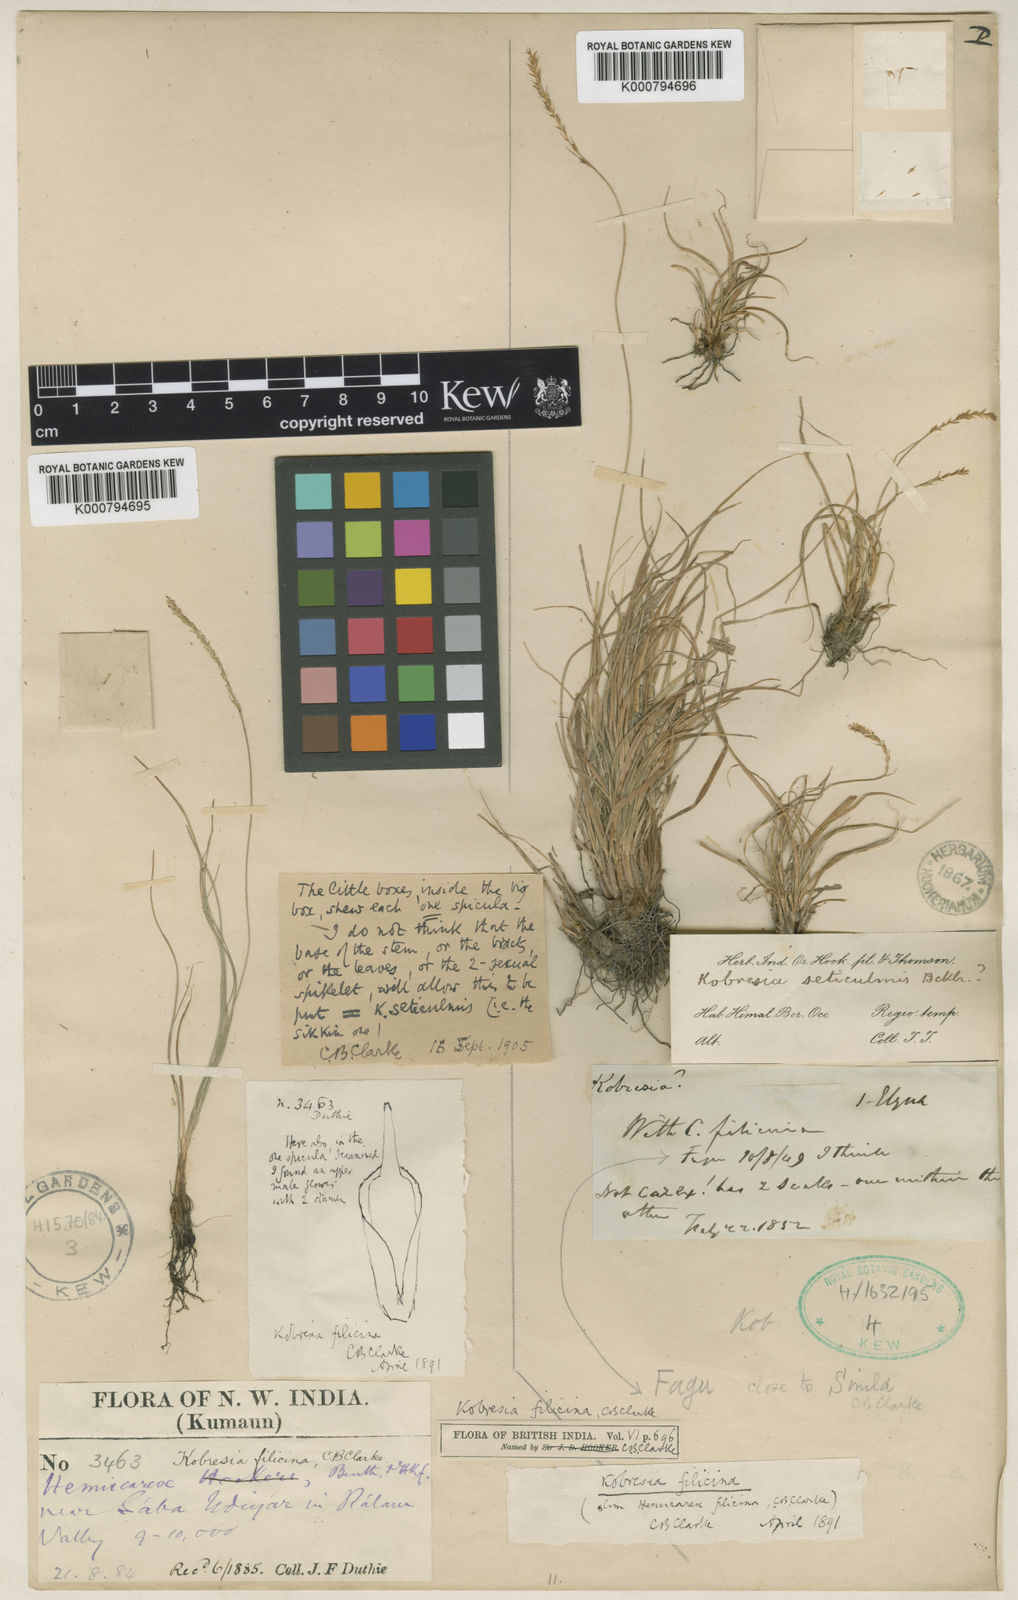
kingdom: Plantae
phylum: Tracheophyta
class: Liliopsida
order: Poales
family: Cyperaceae
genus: Carex
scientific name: Carex filispica
